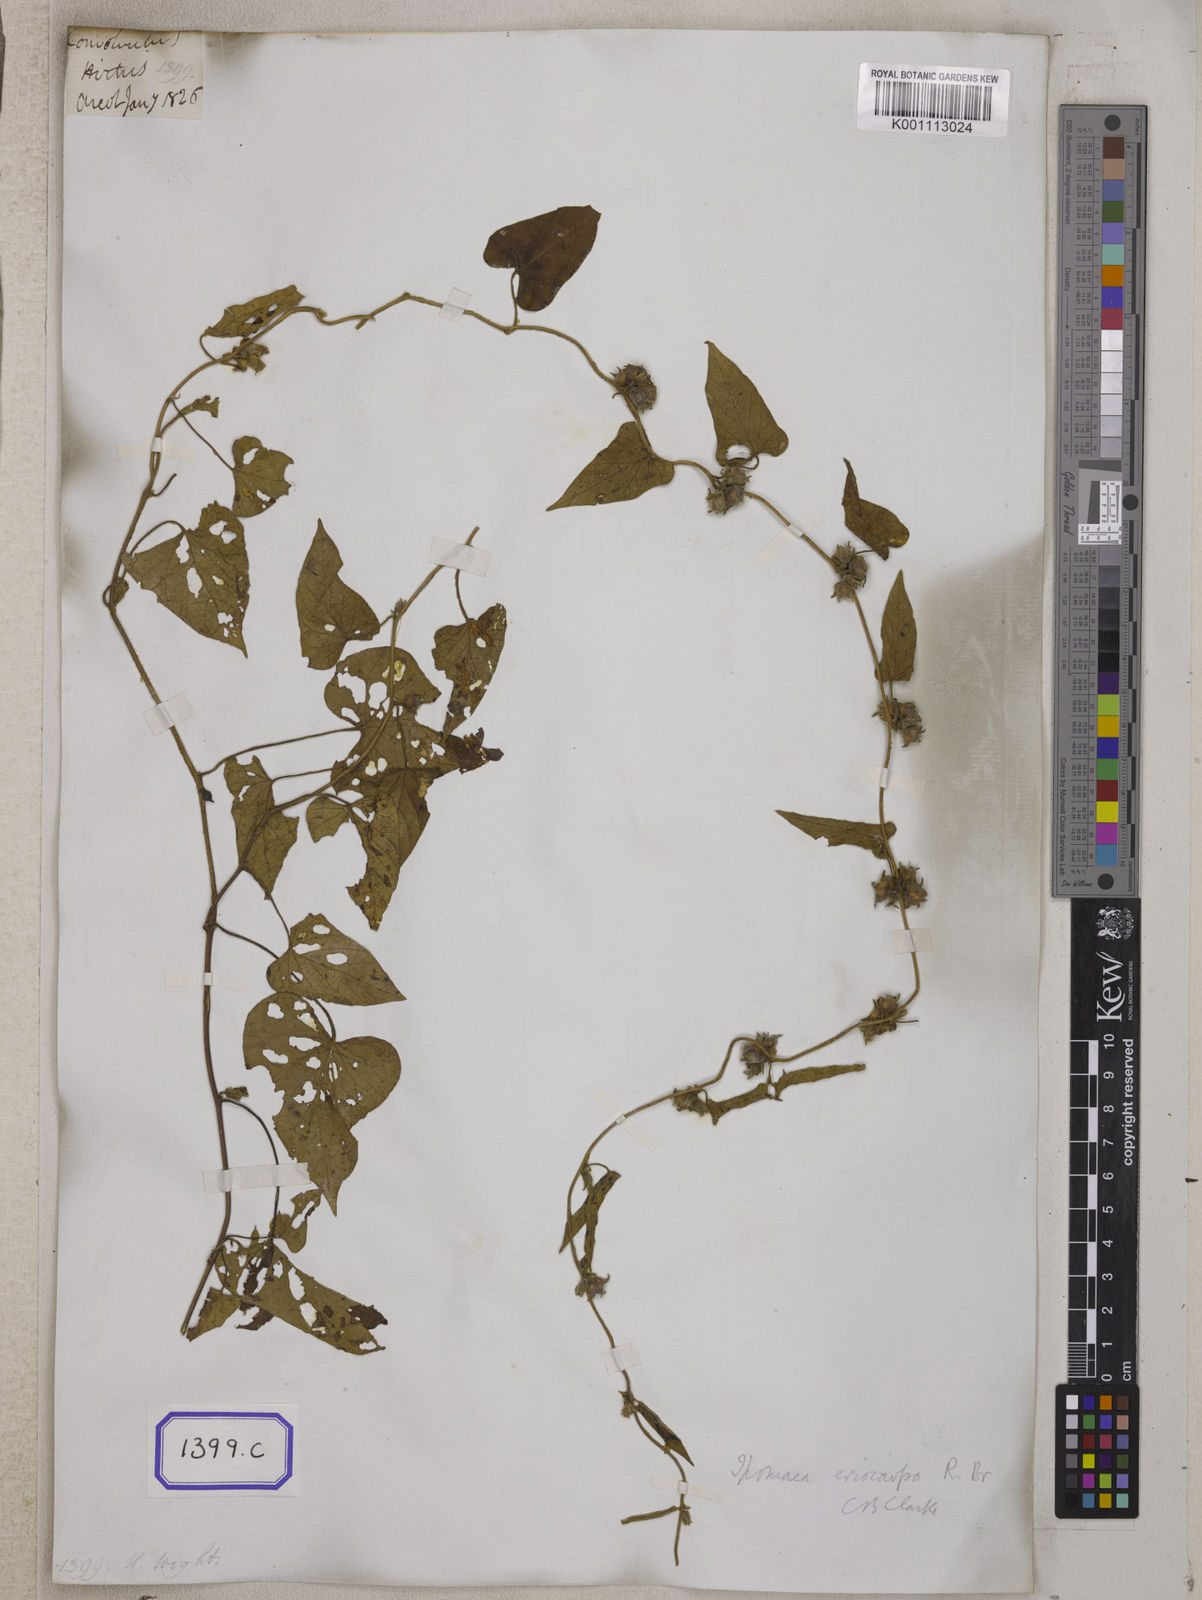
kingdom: Plantae
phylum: Tracheophyta
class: Magnoliopsida
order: Solanales
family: Convolvulaceae
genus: Convolvulus
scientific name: Convolvulus
